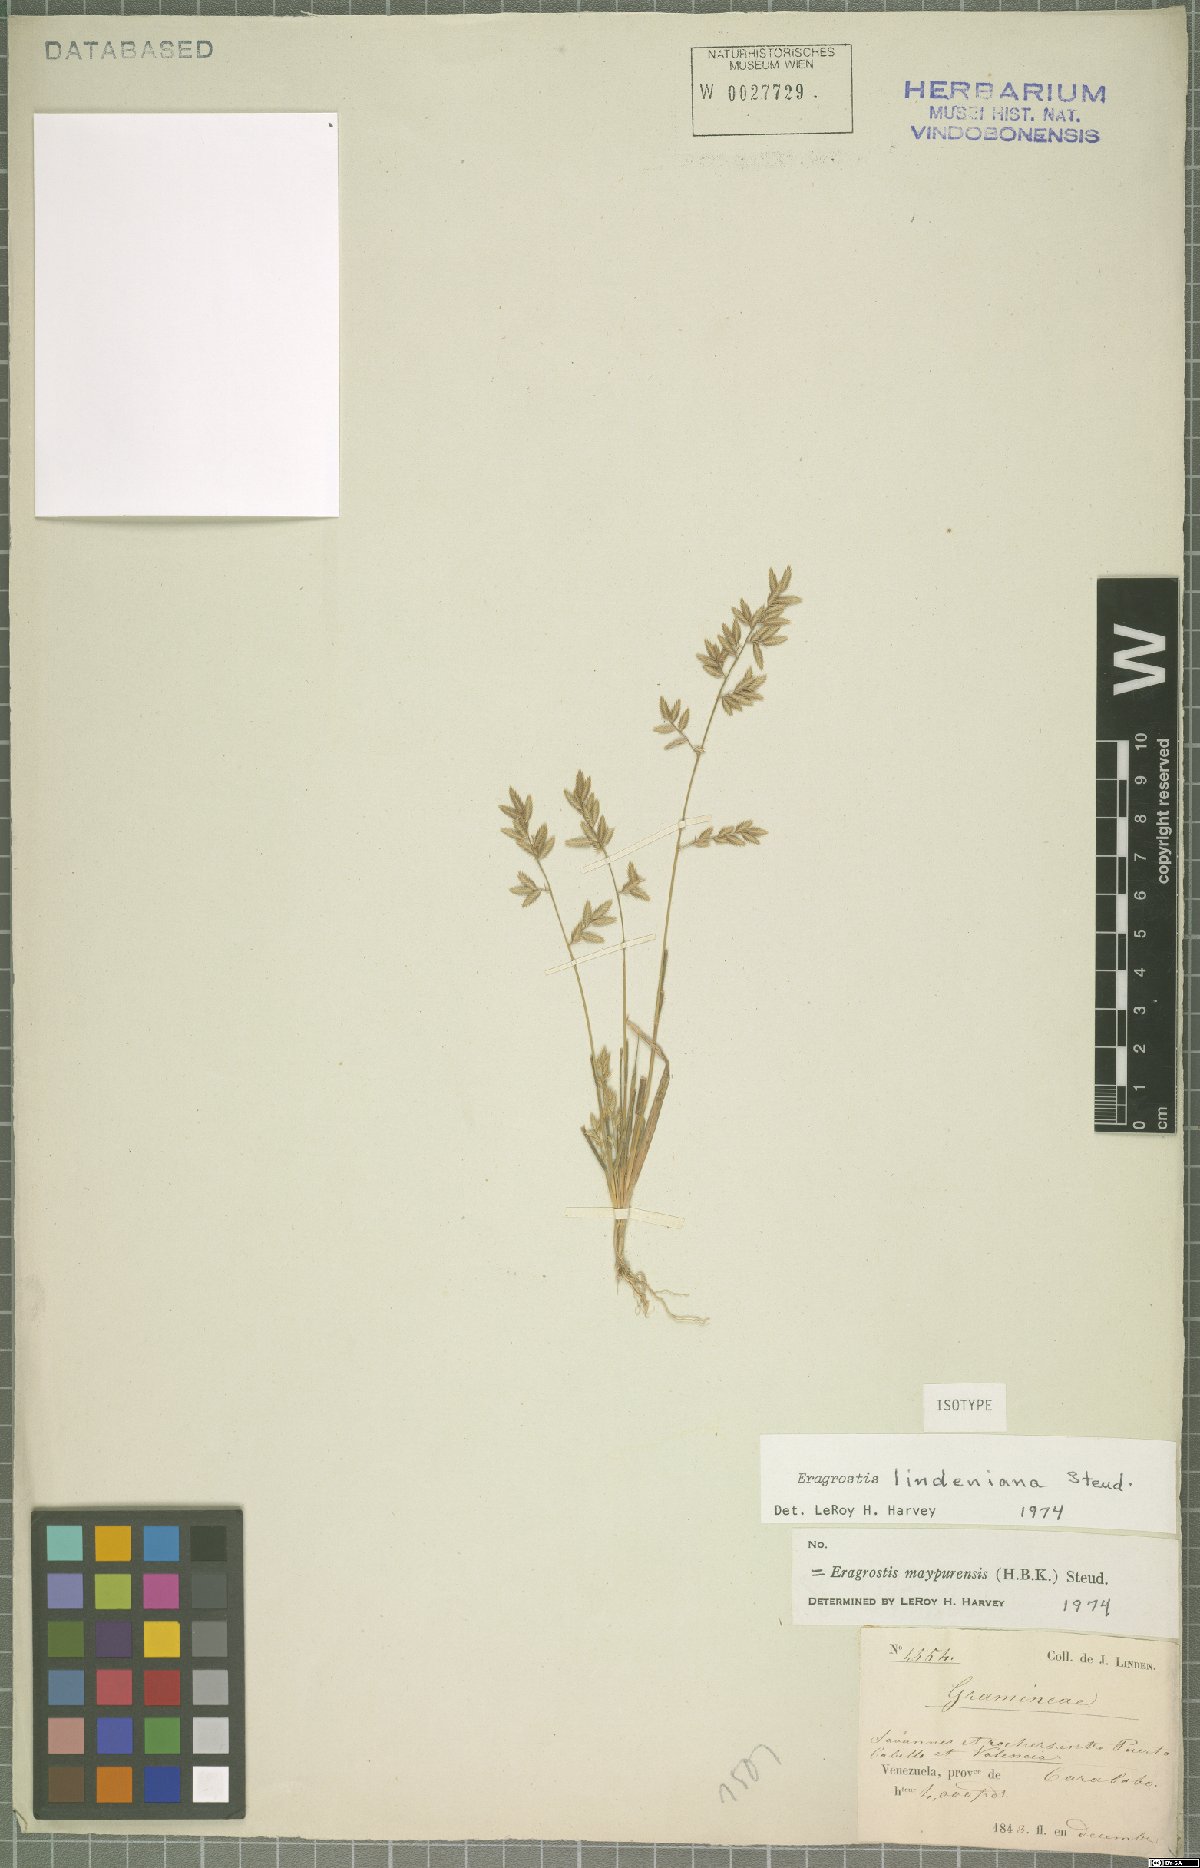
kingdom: Plantae
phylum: Tracheophyta
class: Liliopsida
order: Poales
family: Poaceae
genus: Eragrostis
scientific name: Eragrostis maypurensis
